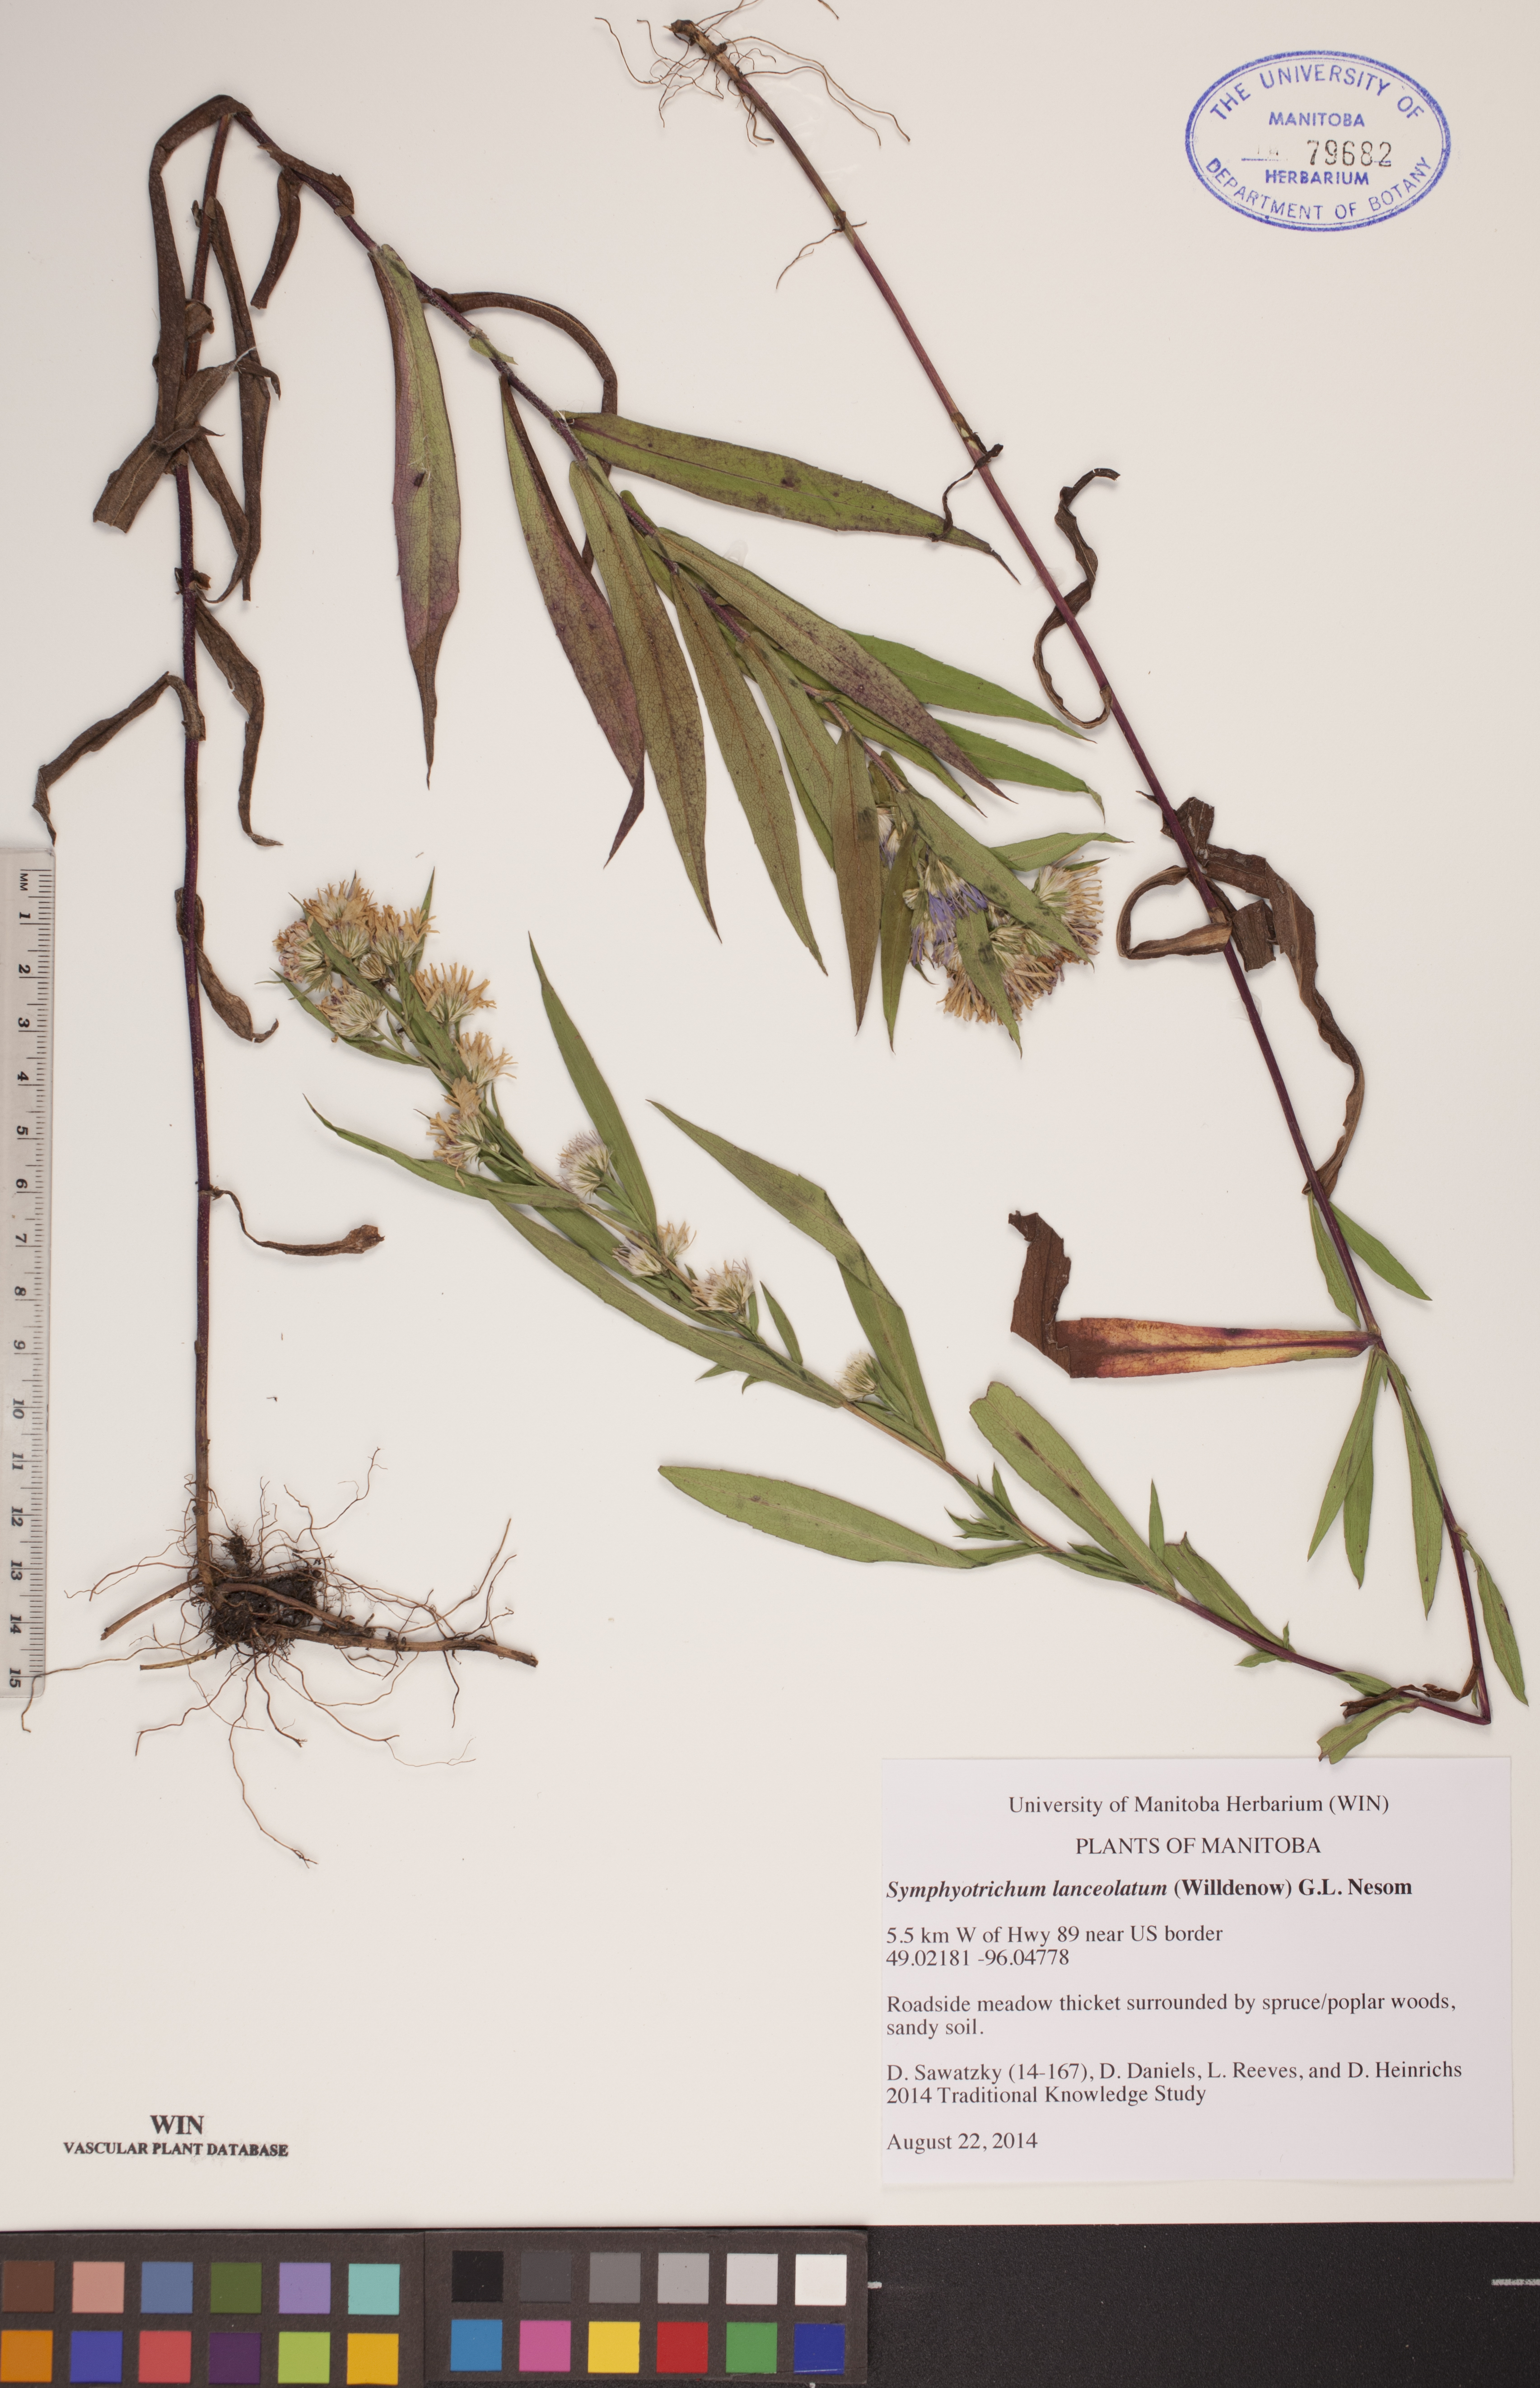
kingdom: Plantae
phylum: Tracheophyta
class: Magnoliopsida
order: Asterales
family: Asteraceae
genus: Symphyotrichum
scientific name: Symphyotrichum lanceolatum
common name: Panicled aster
